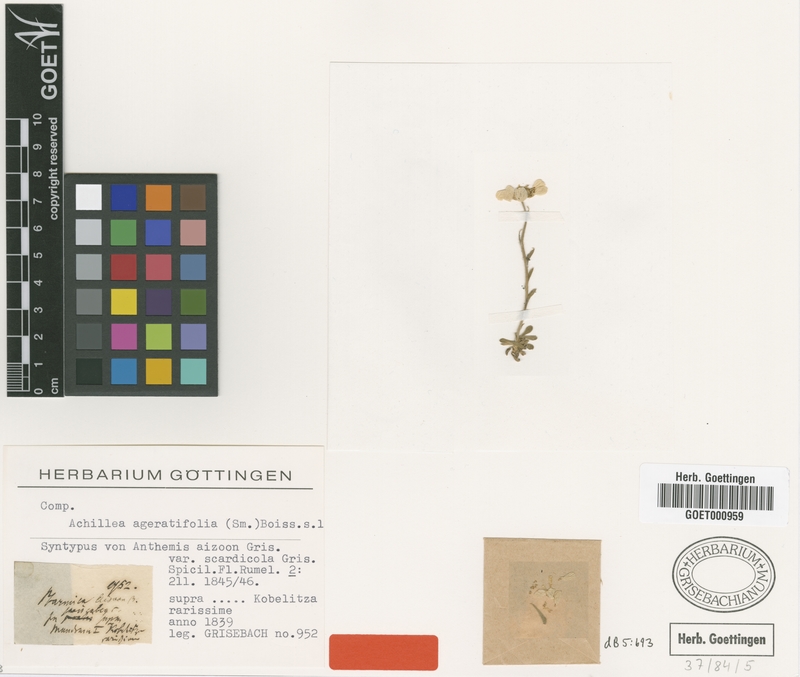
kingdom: Plantae
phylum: Tracheophyta
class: Magnoliopsida
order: Asterales
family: Asteraceae
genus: Achillea
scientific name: Achillea ageratifolia
